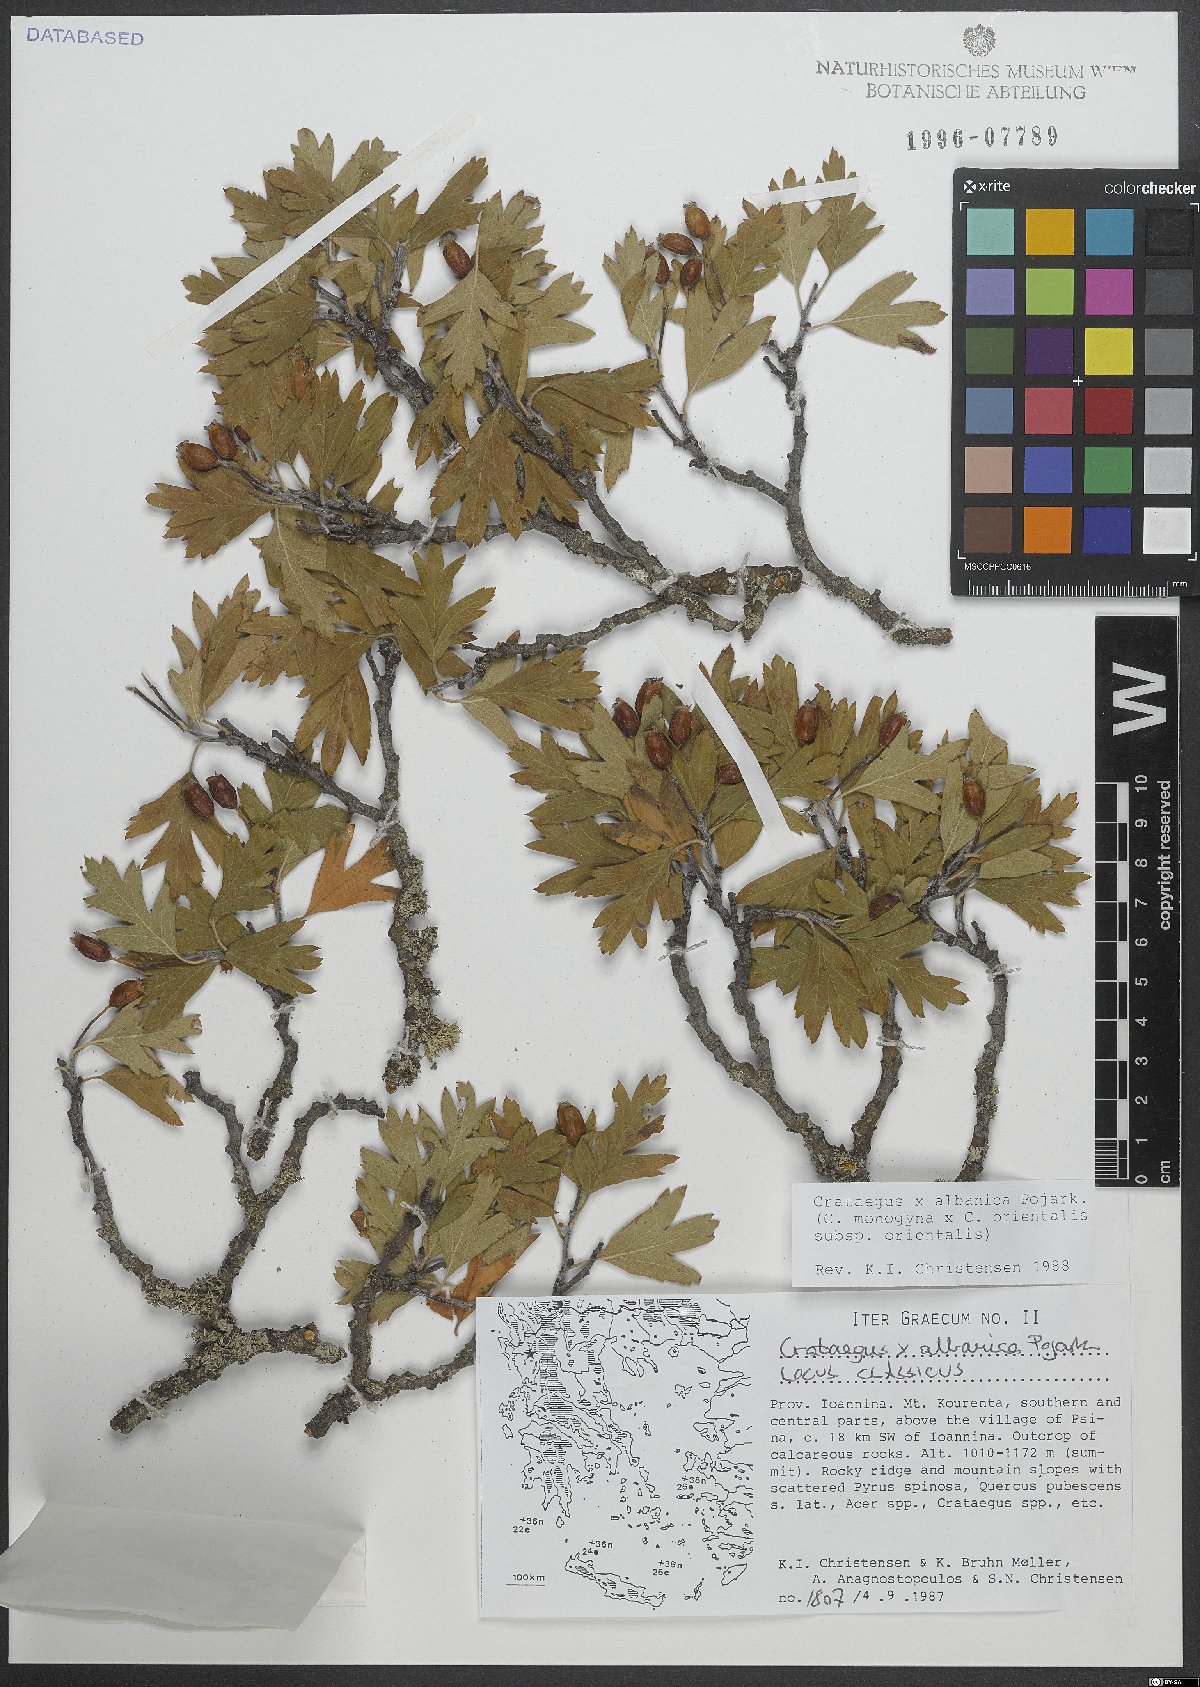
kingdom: Plantae
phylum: Tracheophyta
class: Magnoliopsida
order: Rosales
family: Rosaceae
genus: Crataegus
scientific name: Crataegus albanica
